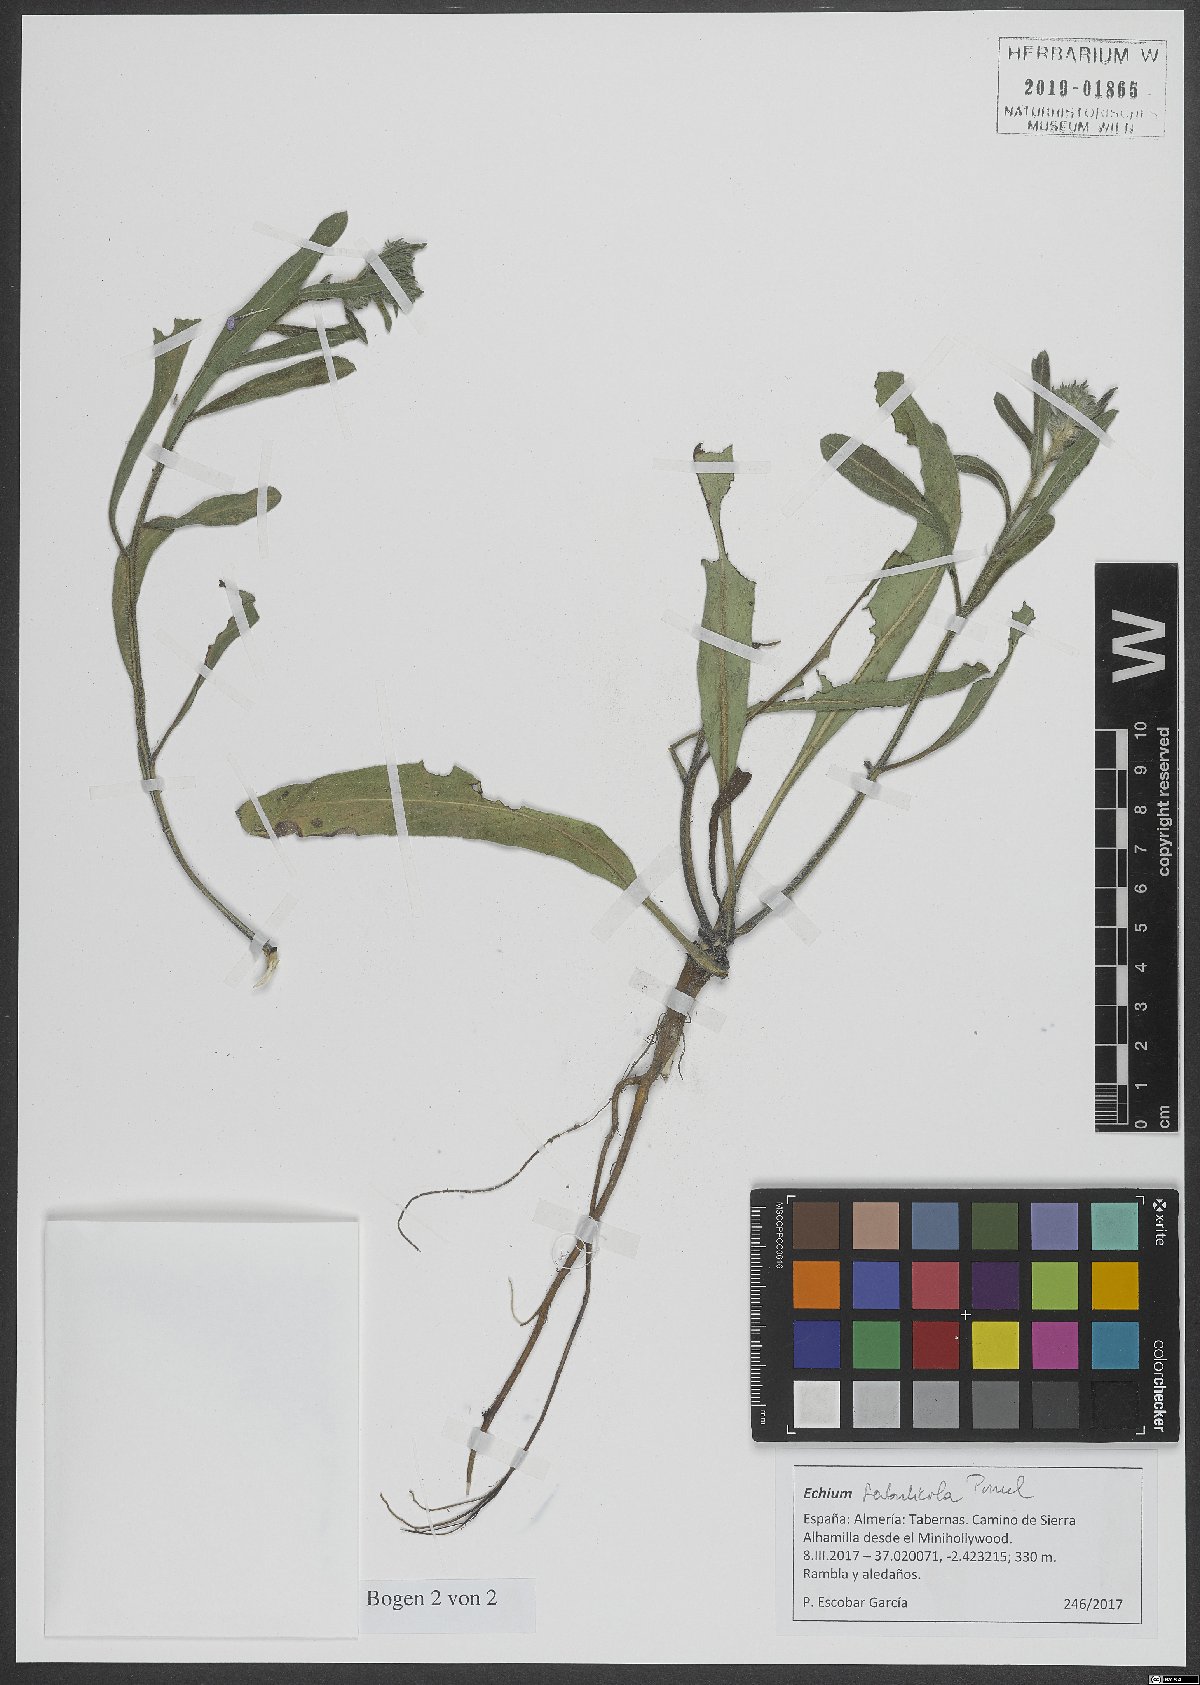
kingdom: Plantae
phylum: Tracheophyta
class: Magnoliopsida
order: Boraginales
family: Boraginaceae
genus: Echium
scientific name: Echium sabulicola
